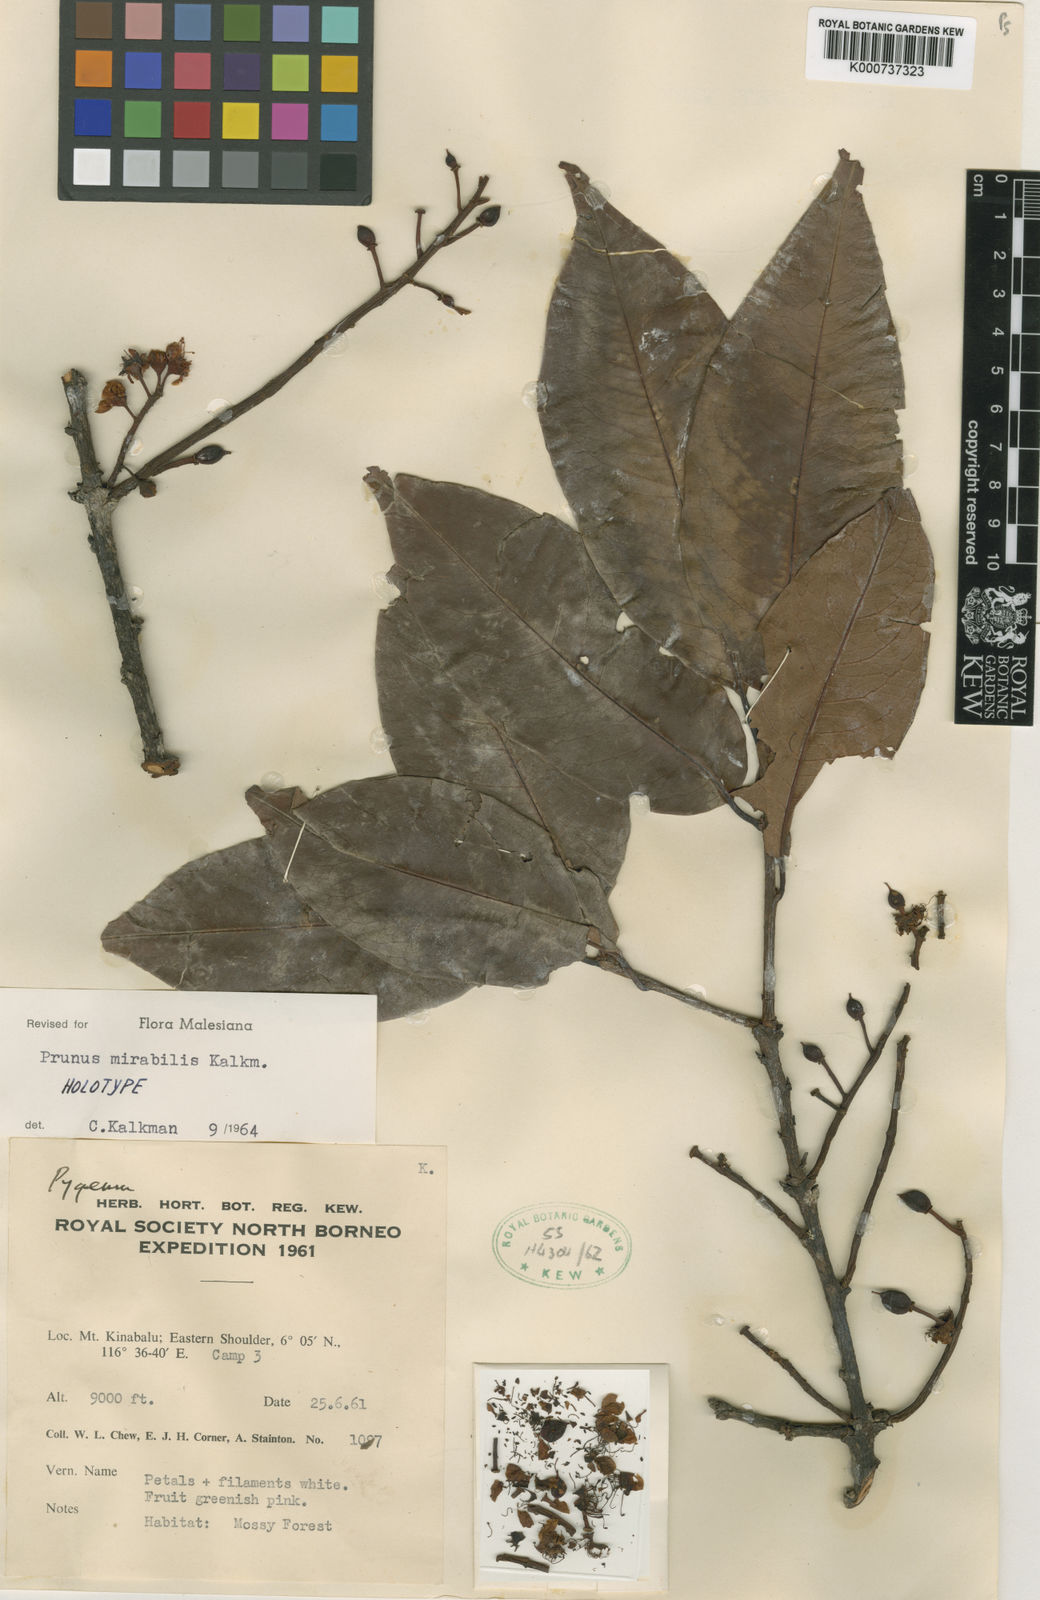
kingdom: Plantae
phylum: Tracheophyta
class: Magnoliopsida
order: Rosales
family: Rosaceae
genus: Prunus
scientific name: Prunus mirabilis
